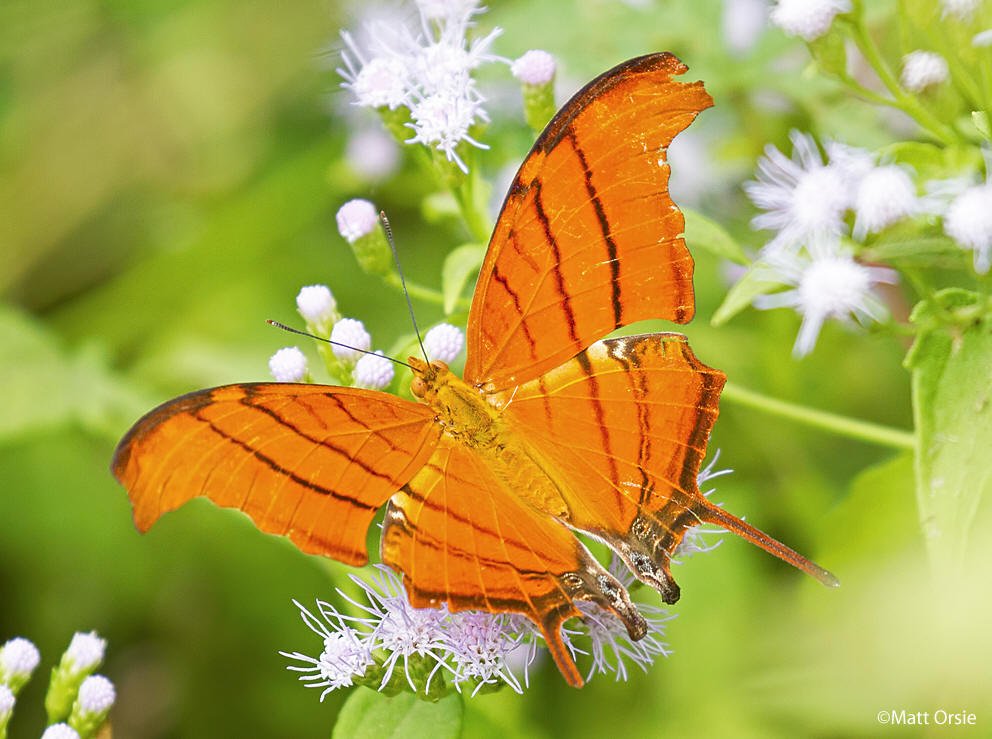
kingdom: Animalia
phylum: Arthropoda
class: Insecta
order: Lepidoptera
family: Nymphalidae
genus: Marpesia
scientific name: Marpesia petreus
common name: Ruddy Daggerwing
